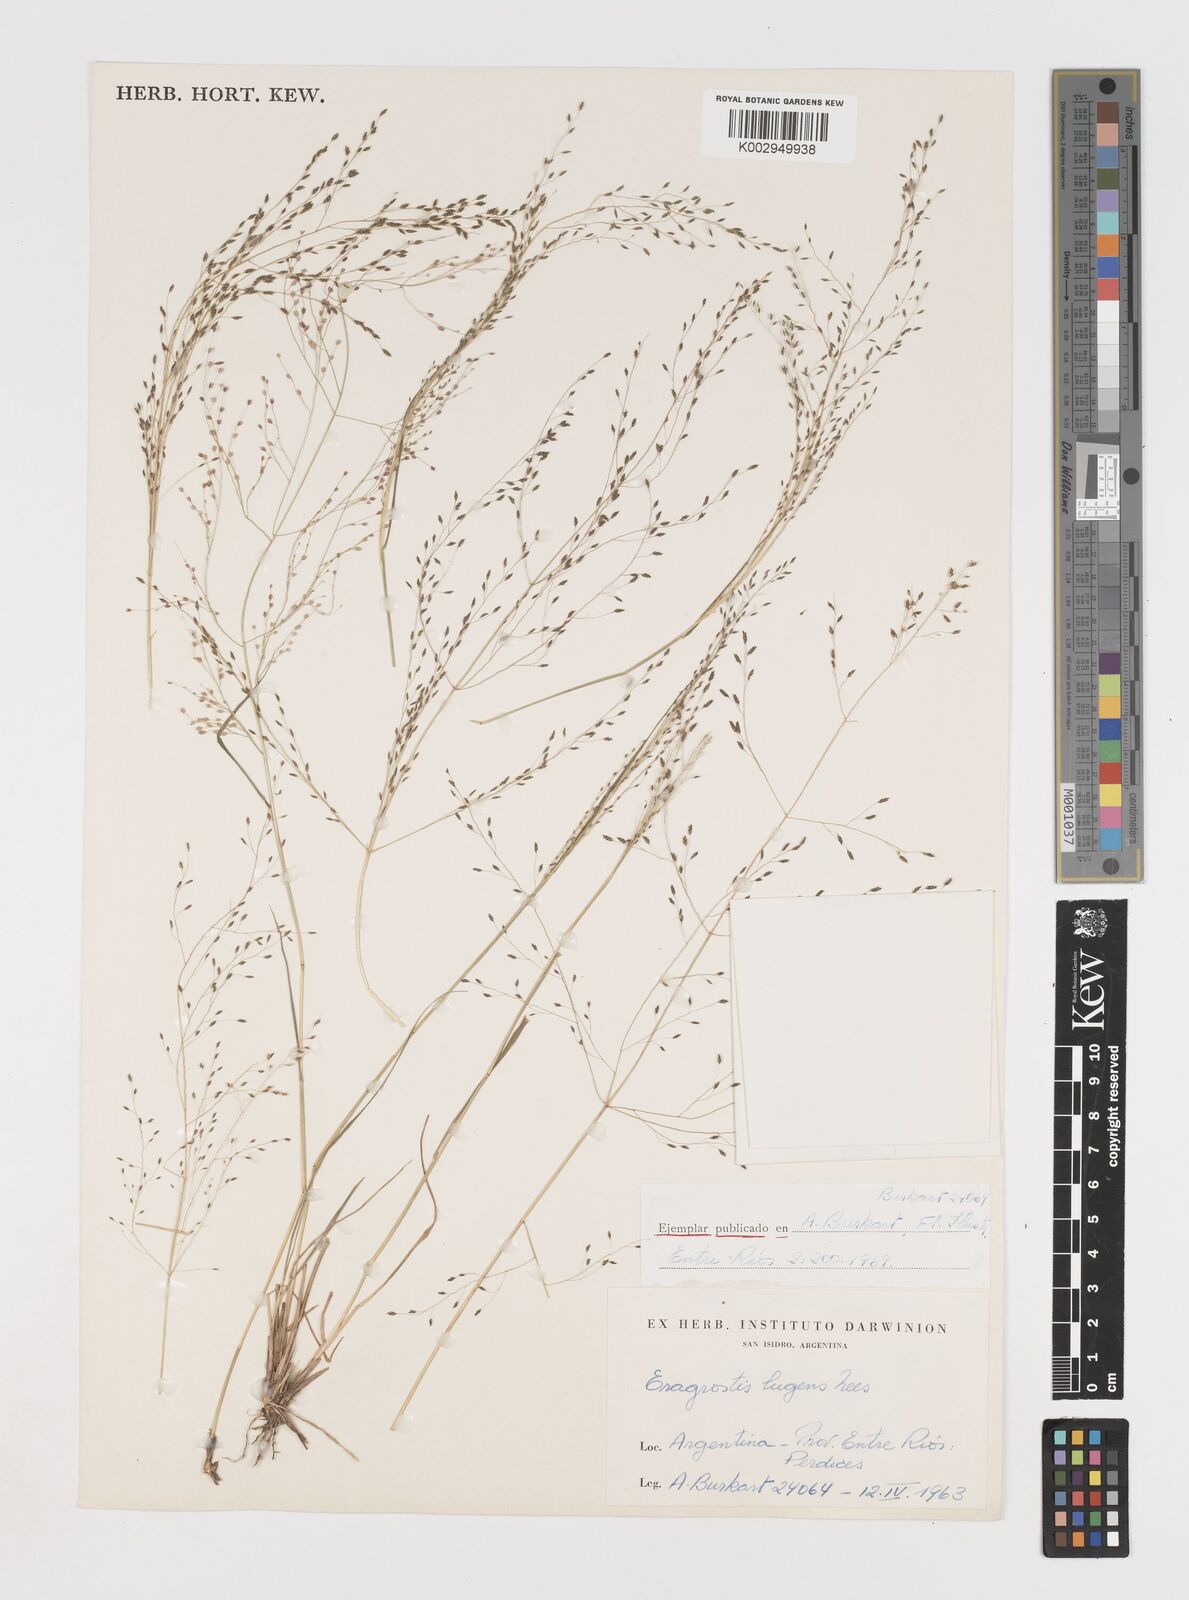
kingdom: Plantae
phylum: Tracheophyta
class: Liliopsida
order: Poales
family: Poaceae
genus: Eragrostis
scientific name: Eragrostis lugens
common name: Mourning love grass
